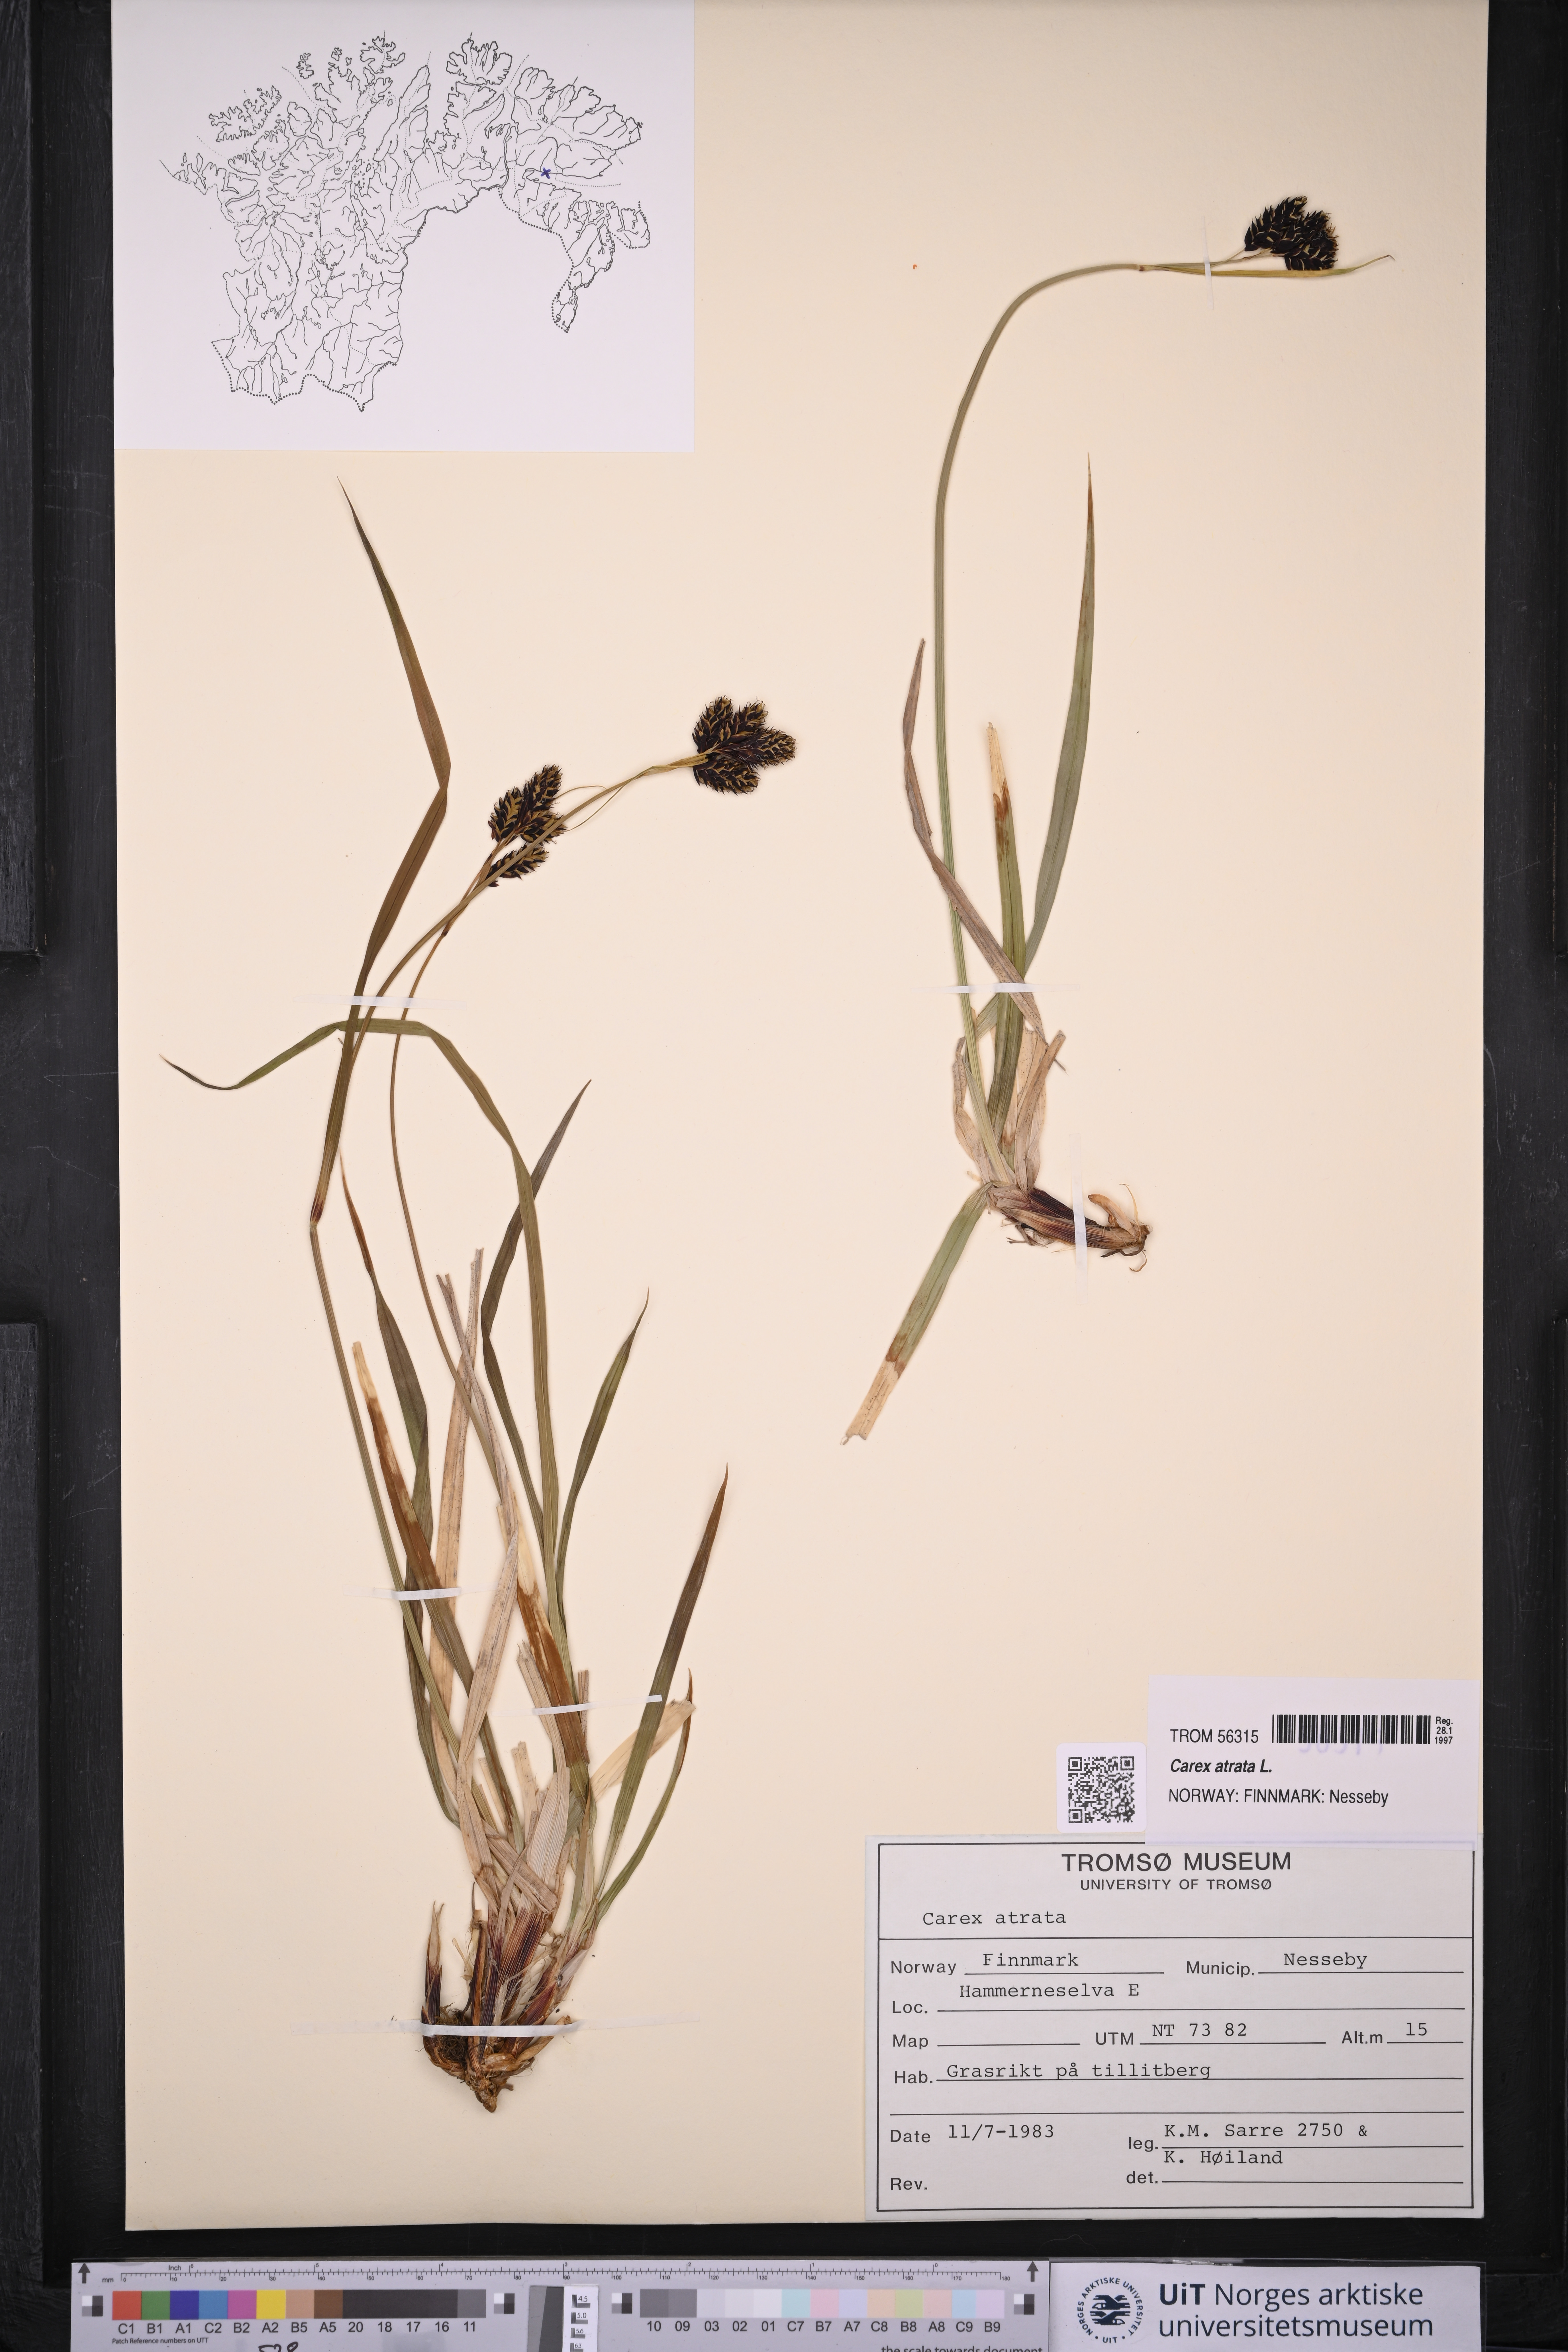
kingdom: Plantae
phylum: Tracheophyta
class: Liliopsida
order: Poales
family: Cyperaceae
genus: Carex
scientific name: Carex atrata
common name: Black alpine sedge
